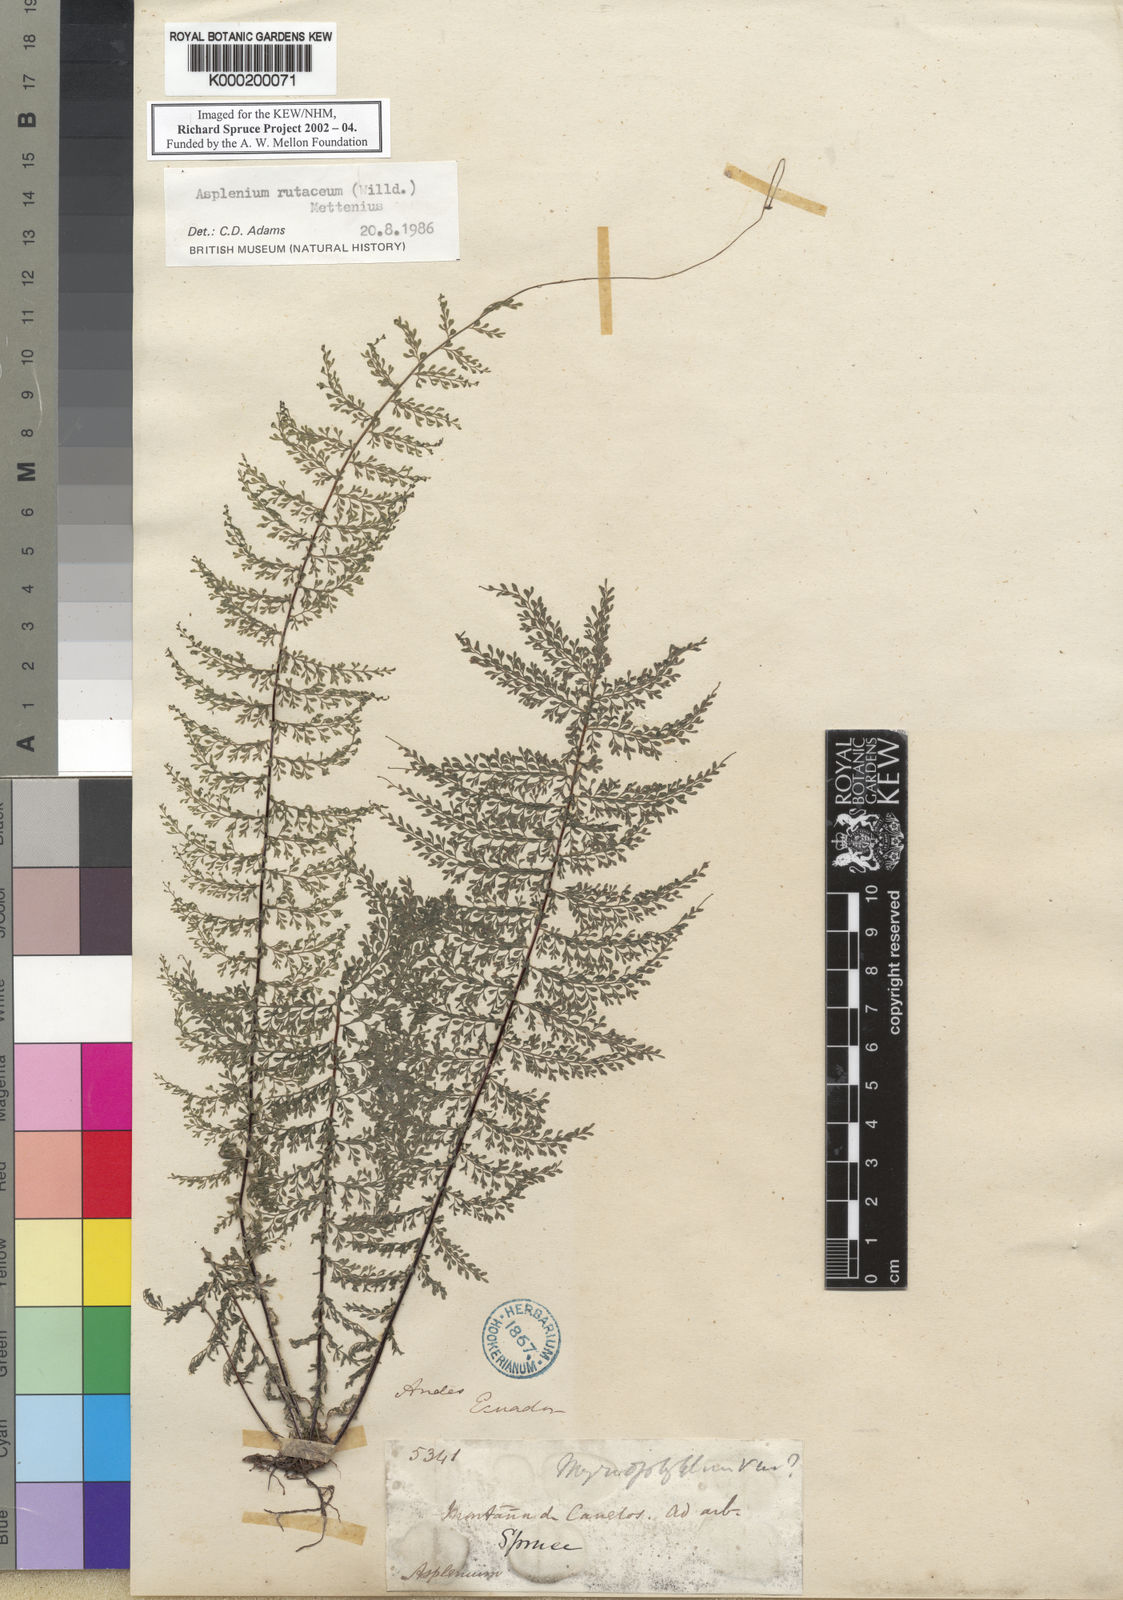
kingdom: Plantae
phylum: Tracheophyta
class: Polypodiopsida
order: Polypodiales
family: Aspleniaceae
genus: Asplenium
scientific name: Asplenium rutaceum
